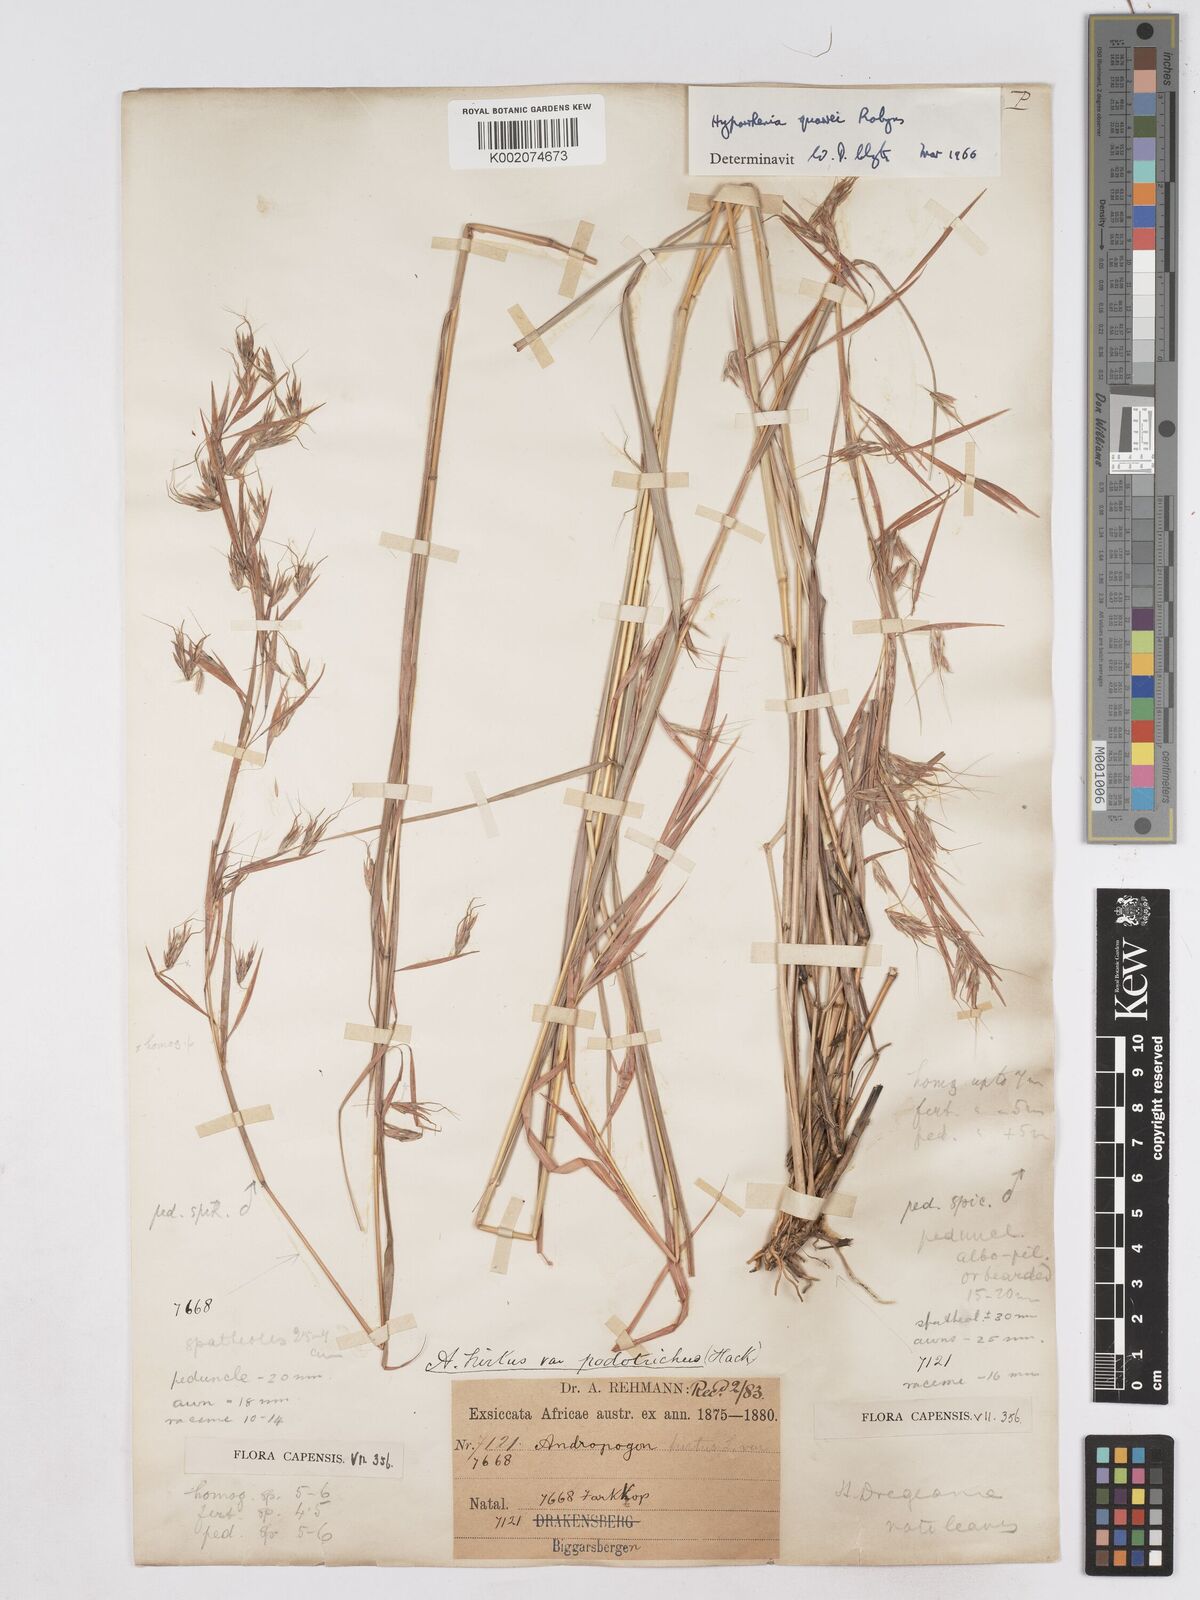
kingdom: Plantae
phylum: Tracheophyta
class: Liliopsida
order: Poales
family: Poaceae
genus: Hyparrhenia
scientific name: Hyparrhenia quarrei
